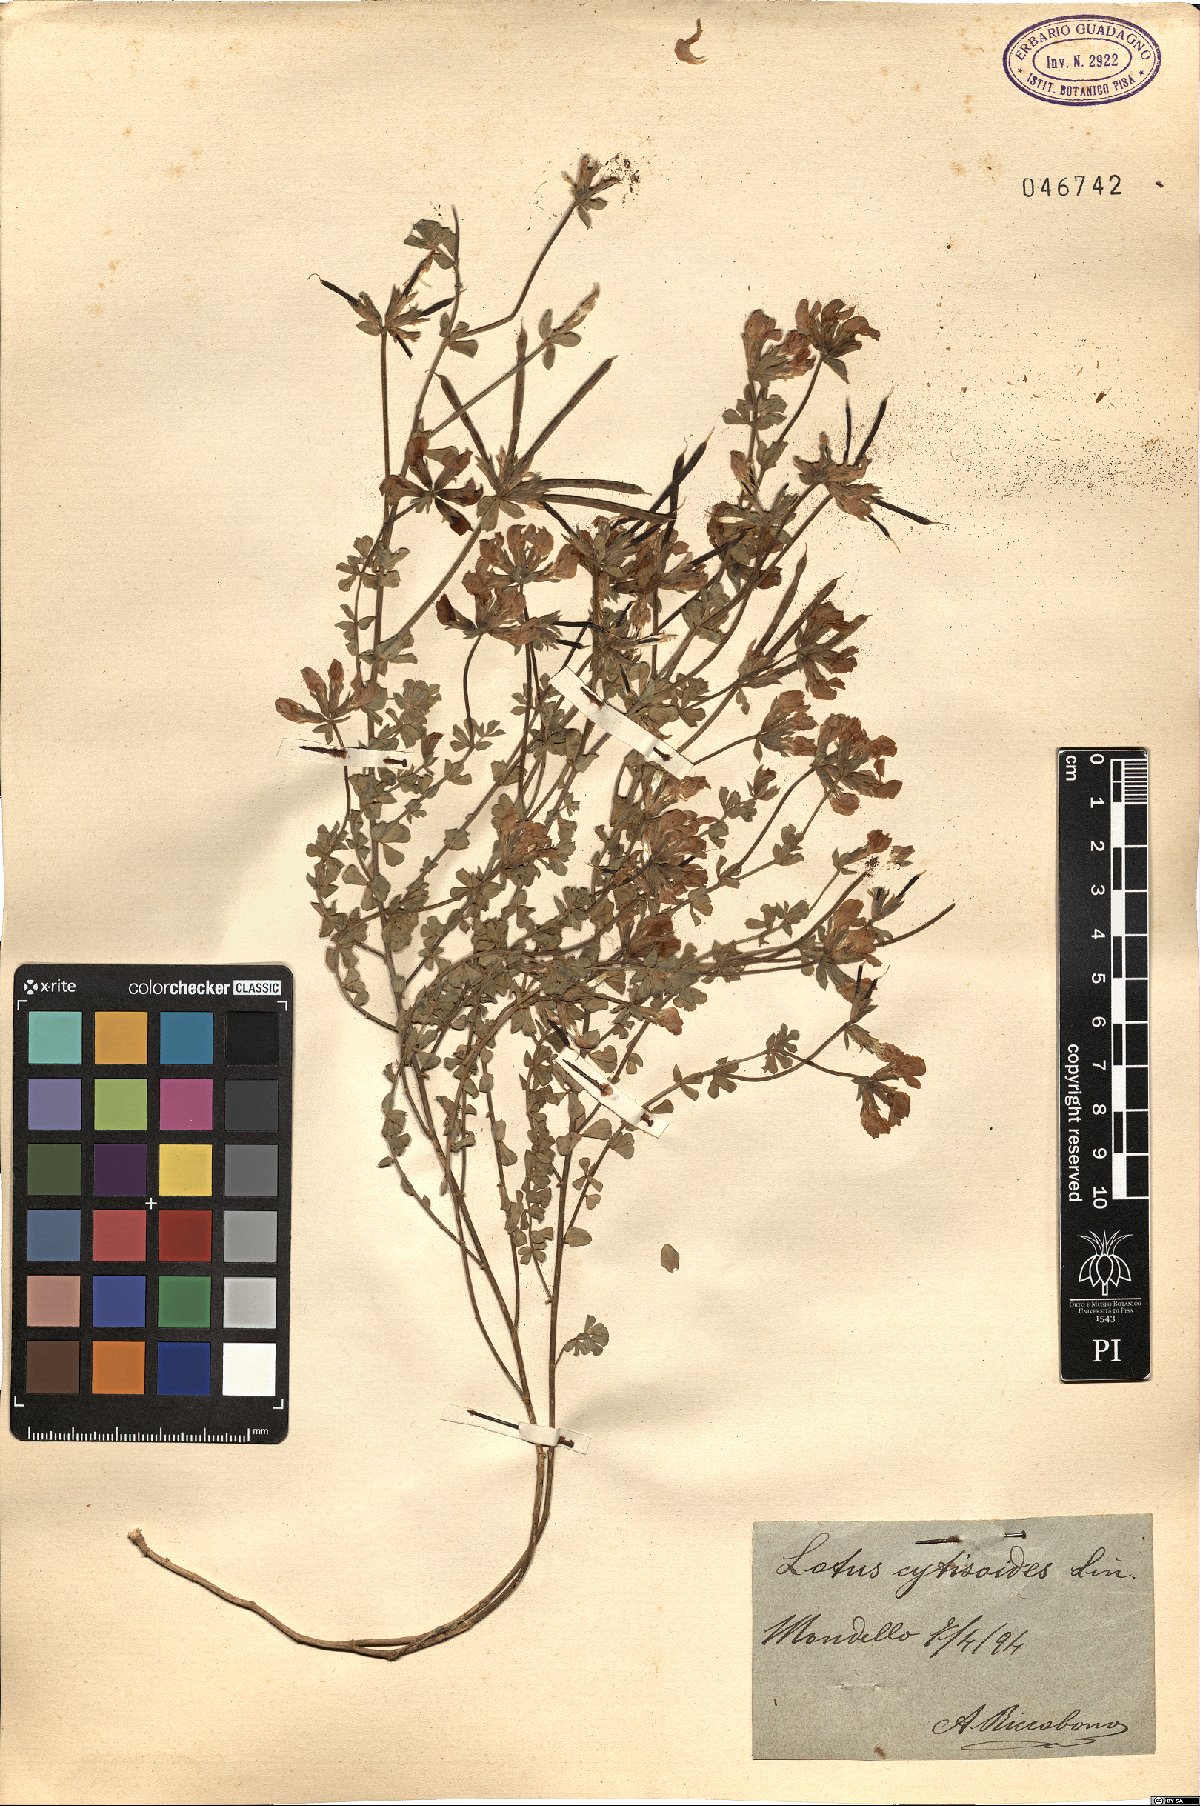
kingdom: Plantae
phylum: Tracheophyta
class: Magnoliopsida
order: Fabales
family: Fabaceae
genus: Lotus
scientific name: Lotus cytisoides
